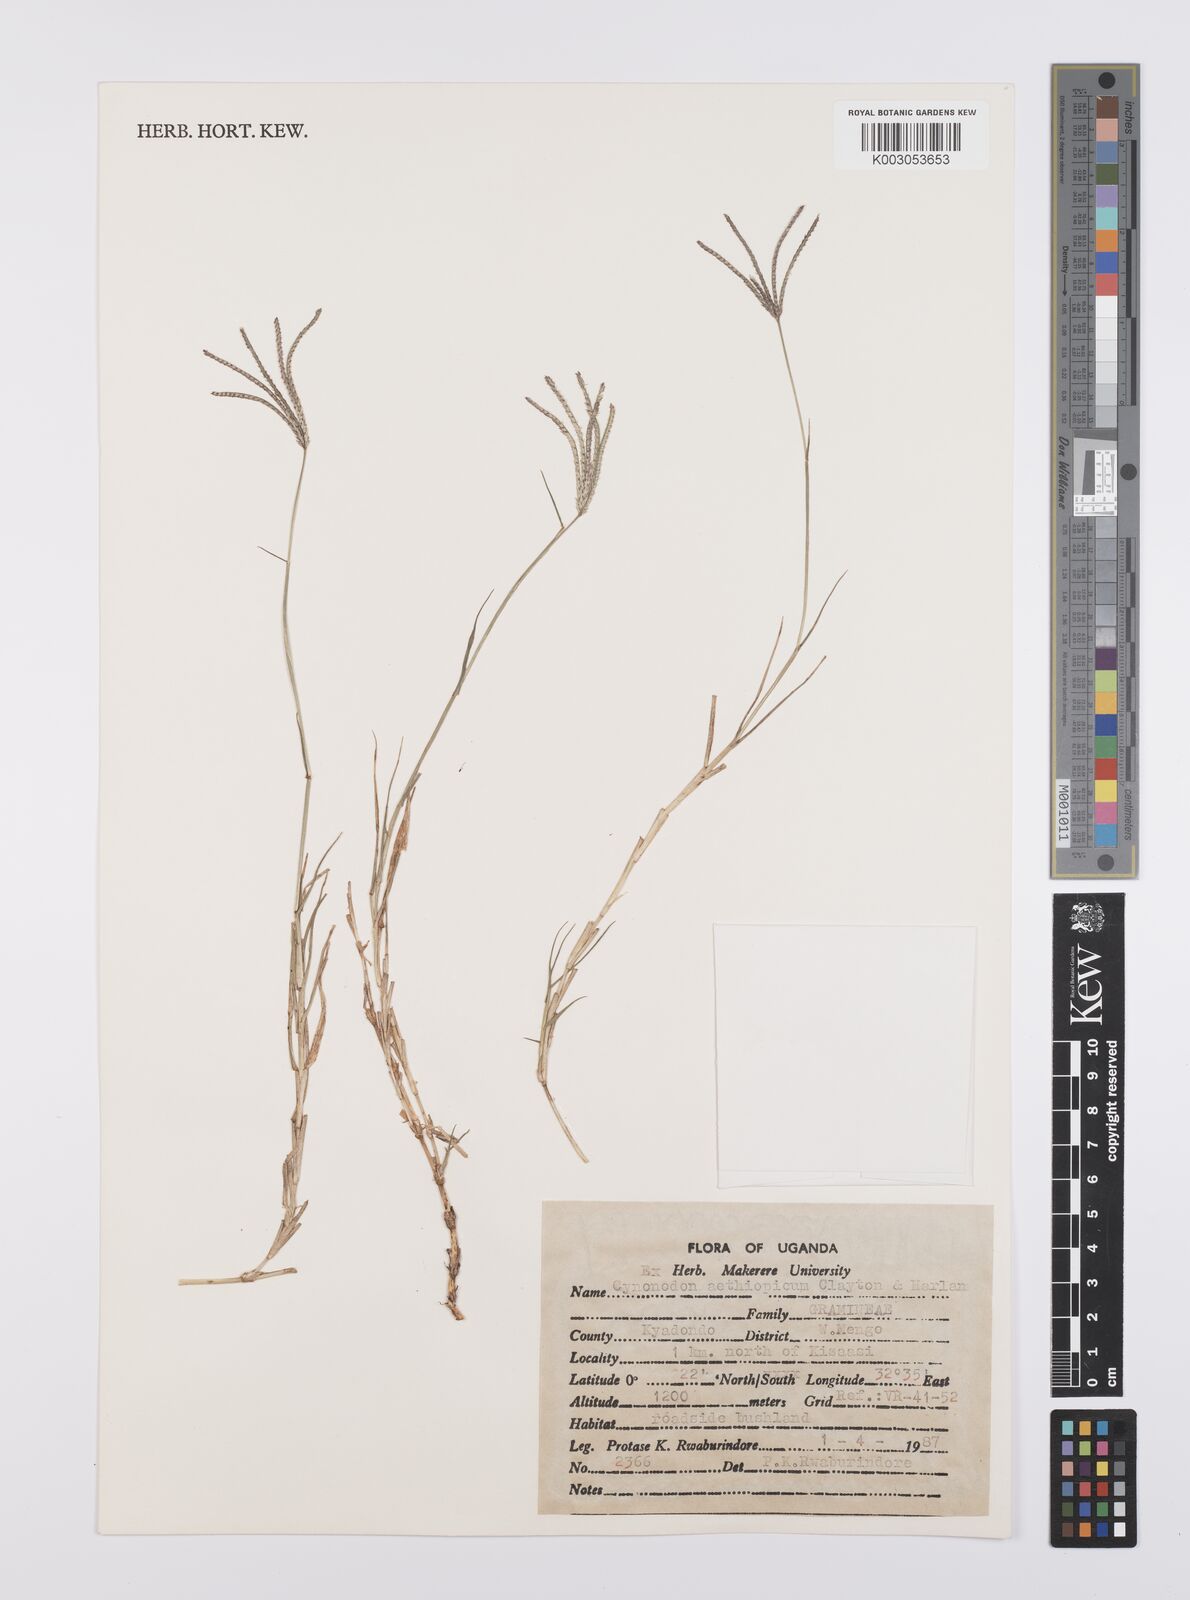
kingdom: Plantae
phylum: Tracheophyta
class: Liliopsida
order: Poales
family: Poaceae
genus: Cynodon
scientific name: Cynodon aethiopicus
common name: Ethiopian dogstooth grass
